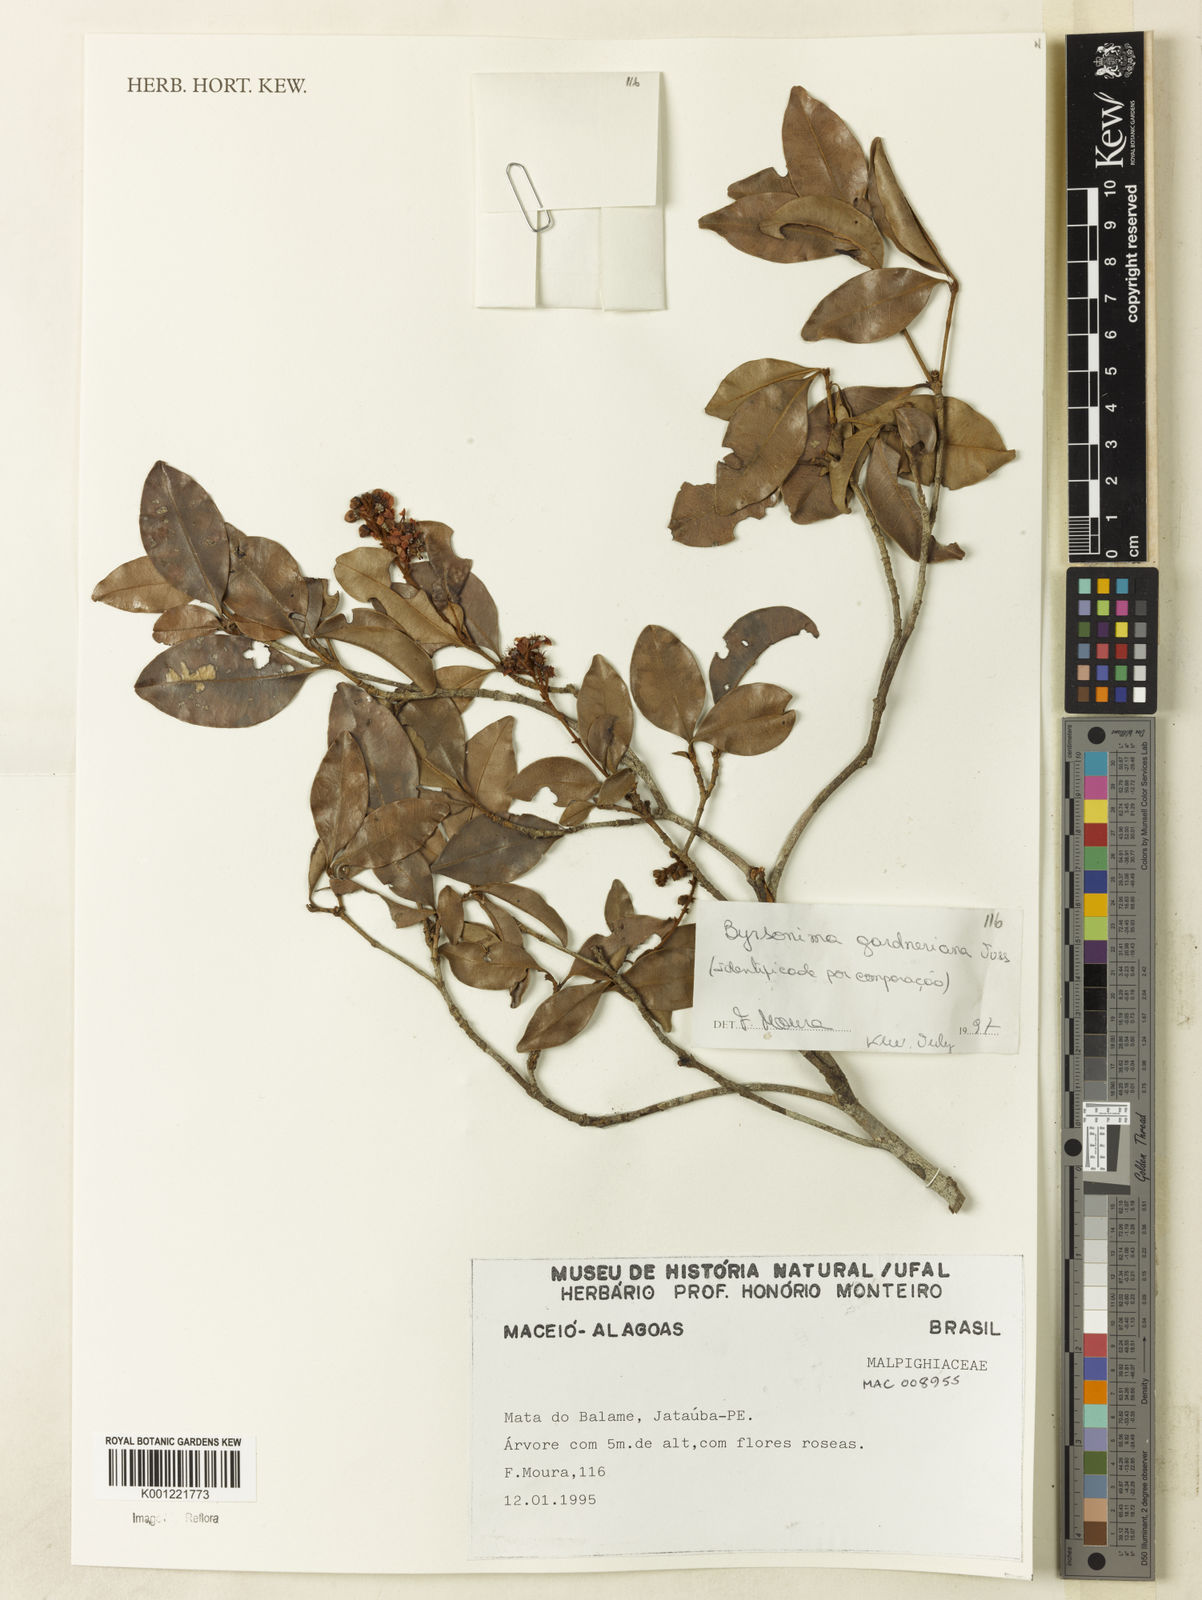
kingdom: Plantae
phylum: Tracheophyta
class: Magnoliopsida
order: Malpighiales
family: Malpighiaceae
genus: Byrsonima
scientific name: Byrsonima gardneriana
